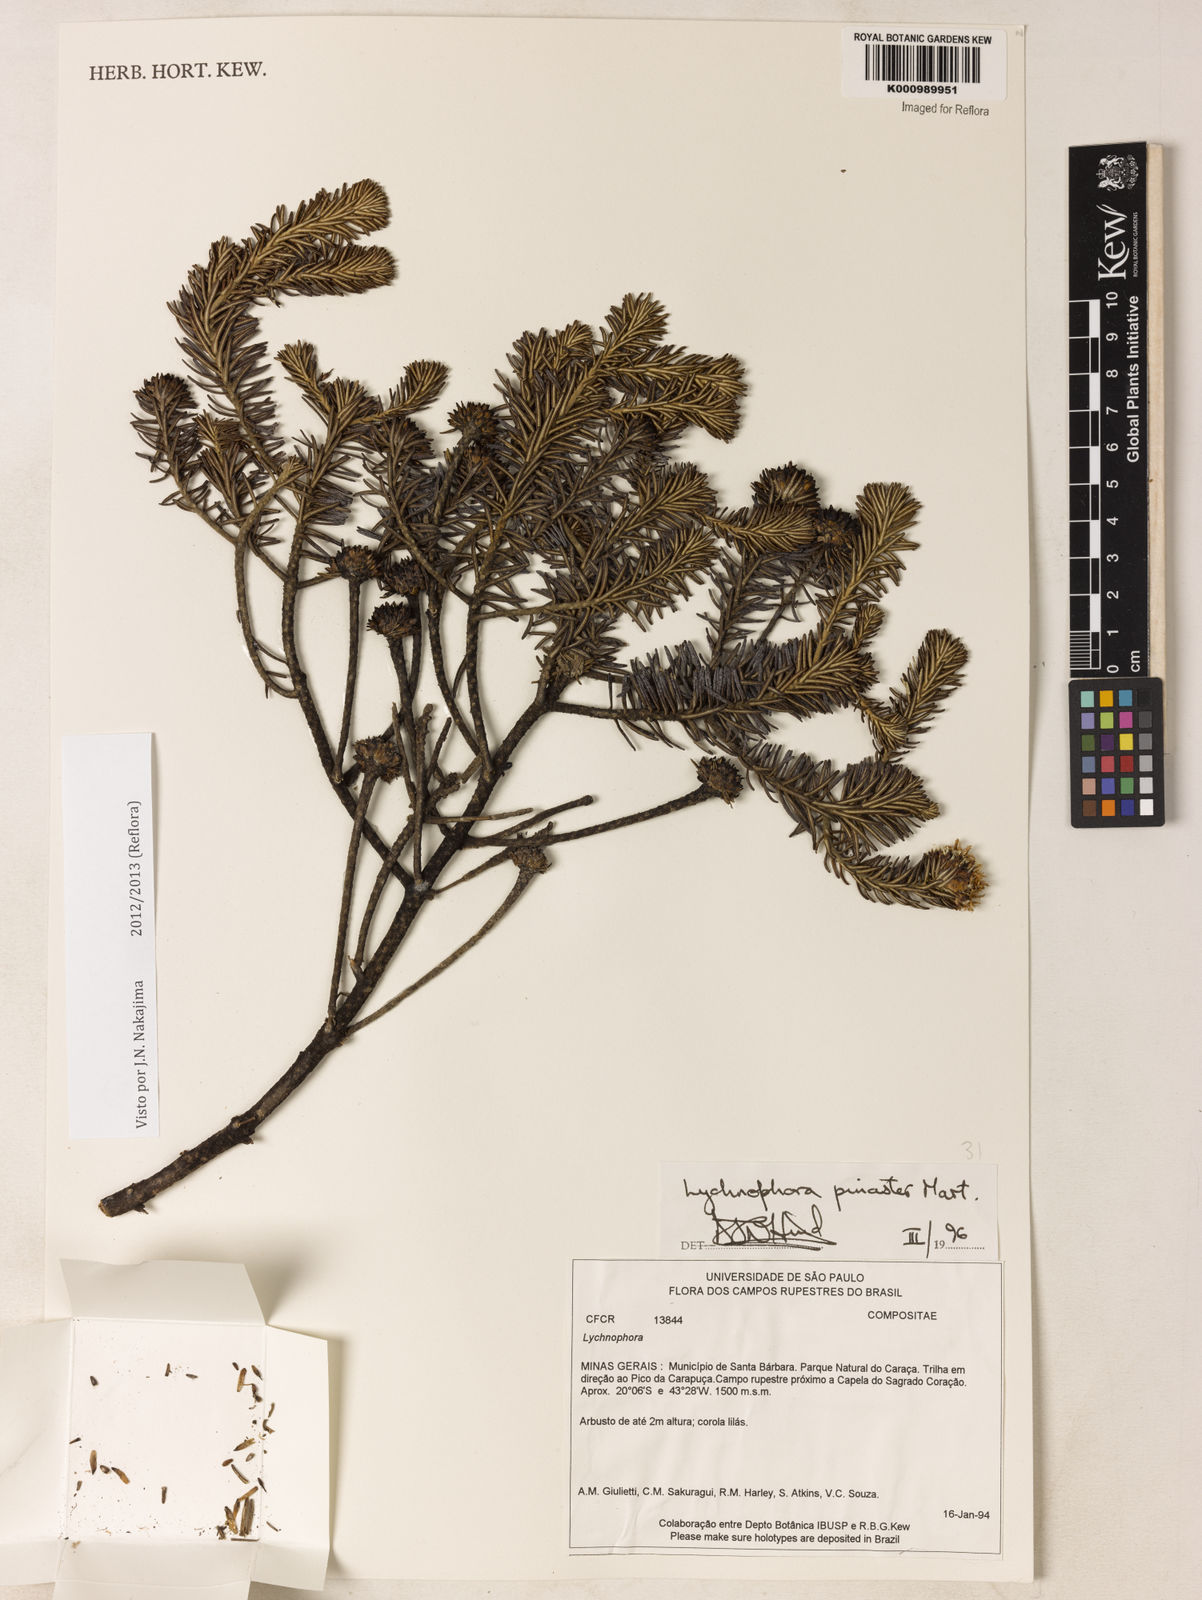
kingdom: Plantae
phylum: Tracheophyta
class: Magnoliopsida
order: Asterales
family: Asteraceae
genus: Lychnophora
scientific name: Lychnophora pinaster
